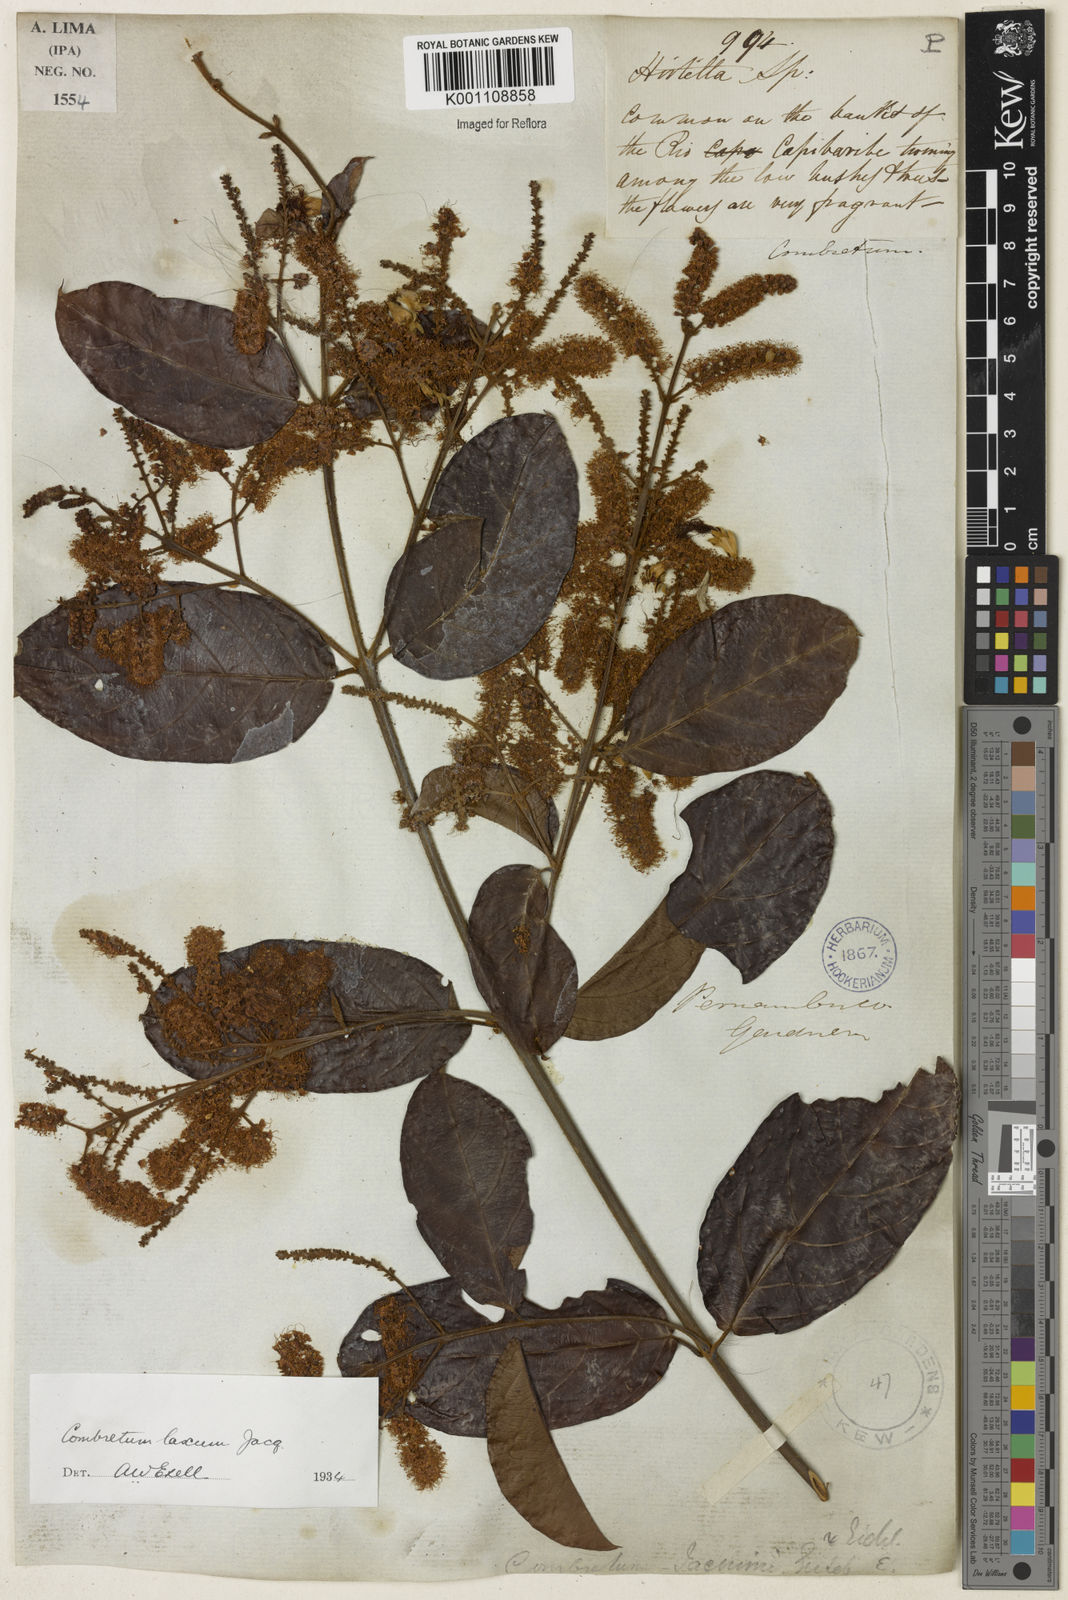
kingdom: Plantae
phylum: Tracheophyta
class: Magnoliopsida
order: Myrtales
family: Combretaceae
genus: Combretum
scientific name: Combretum laxum
